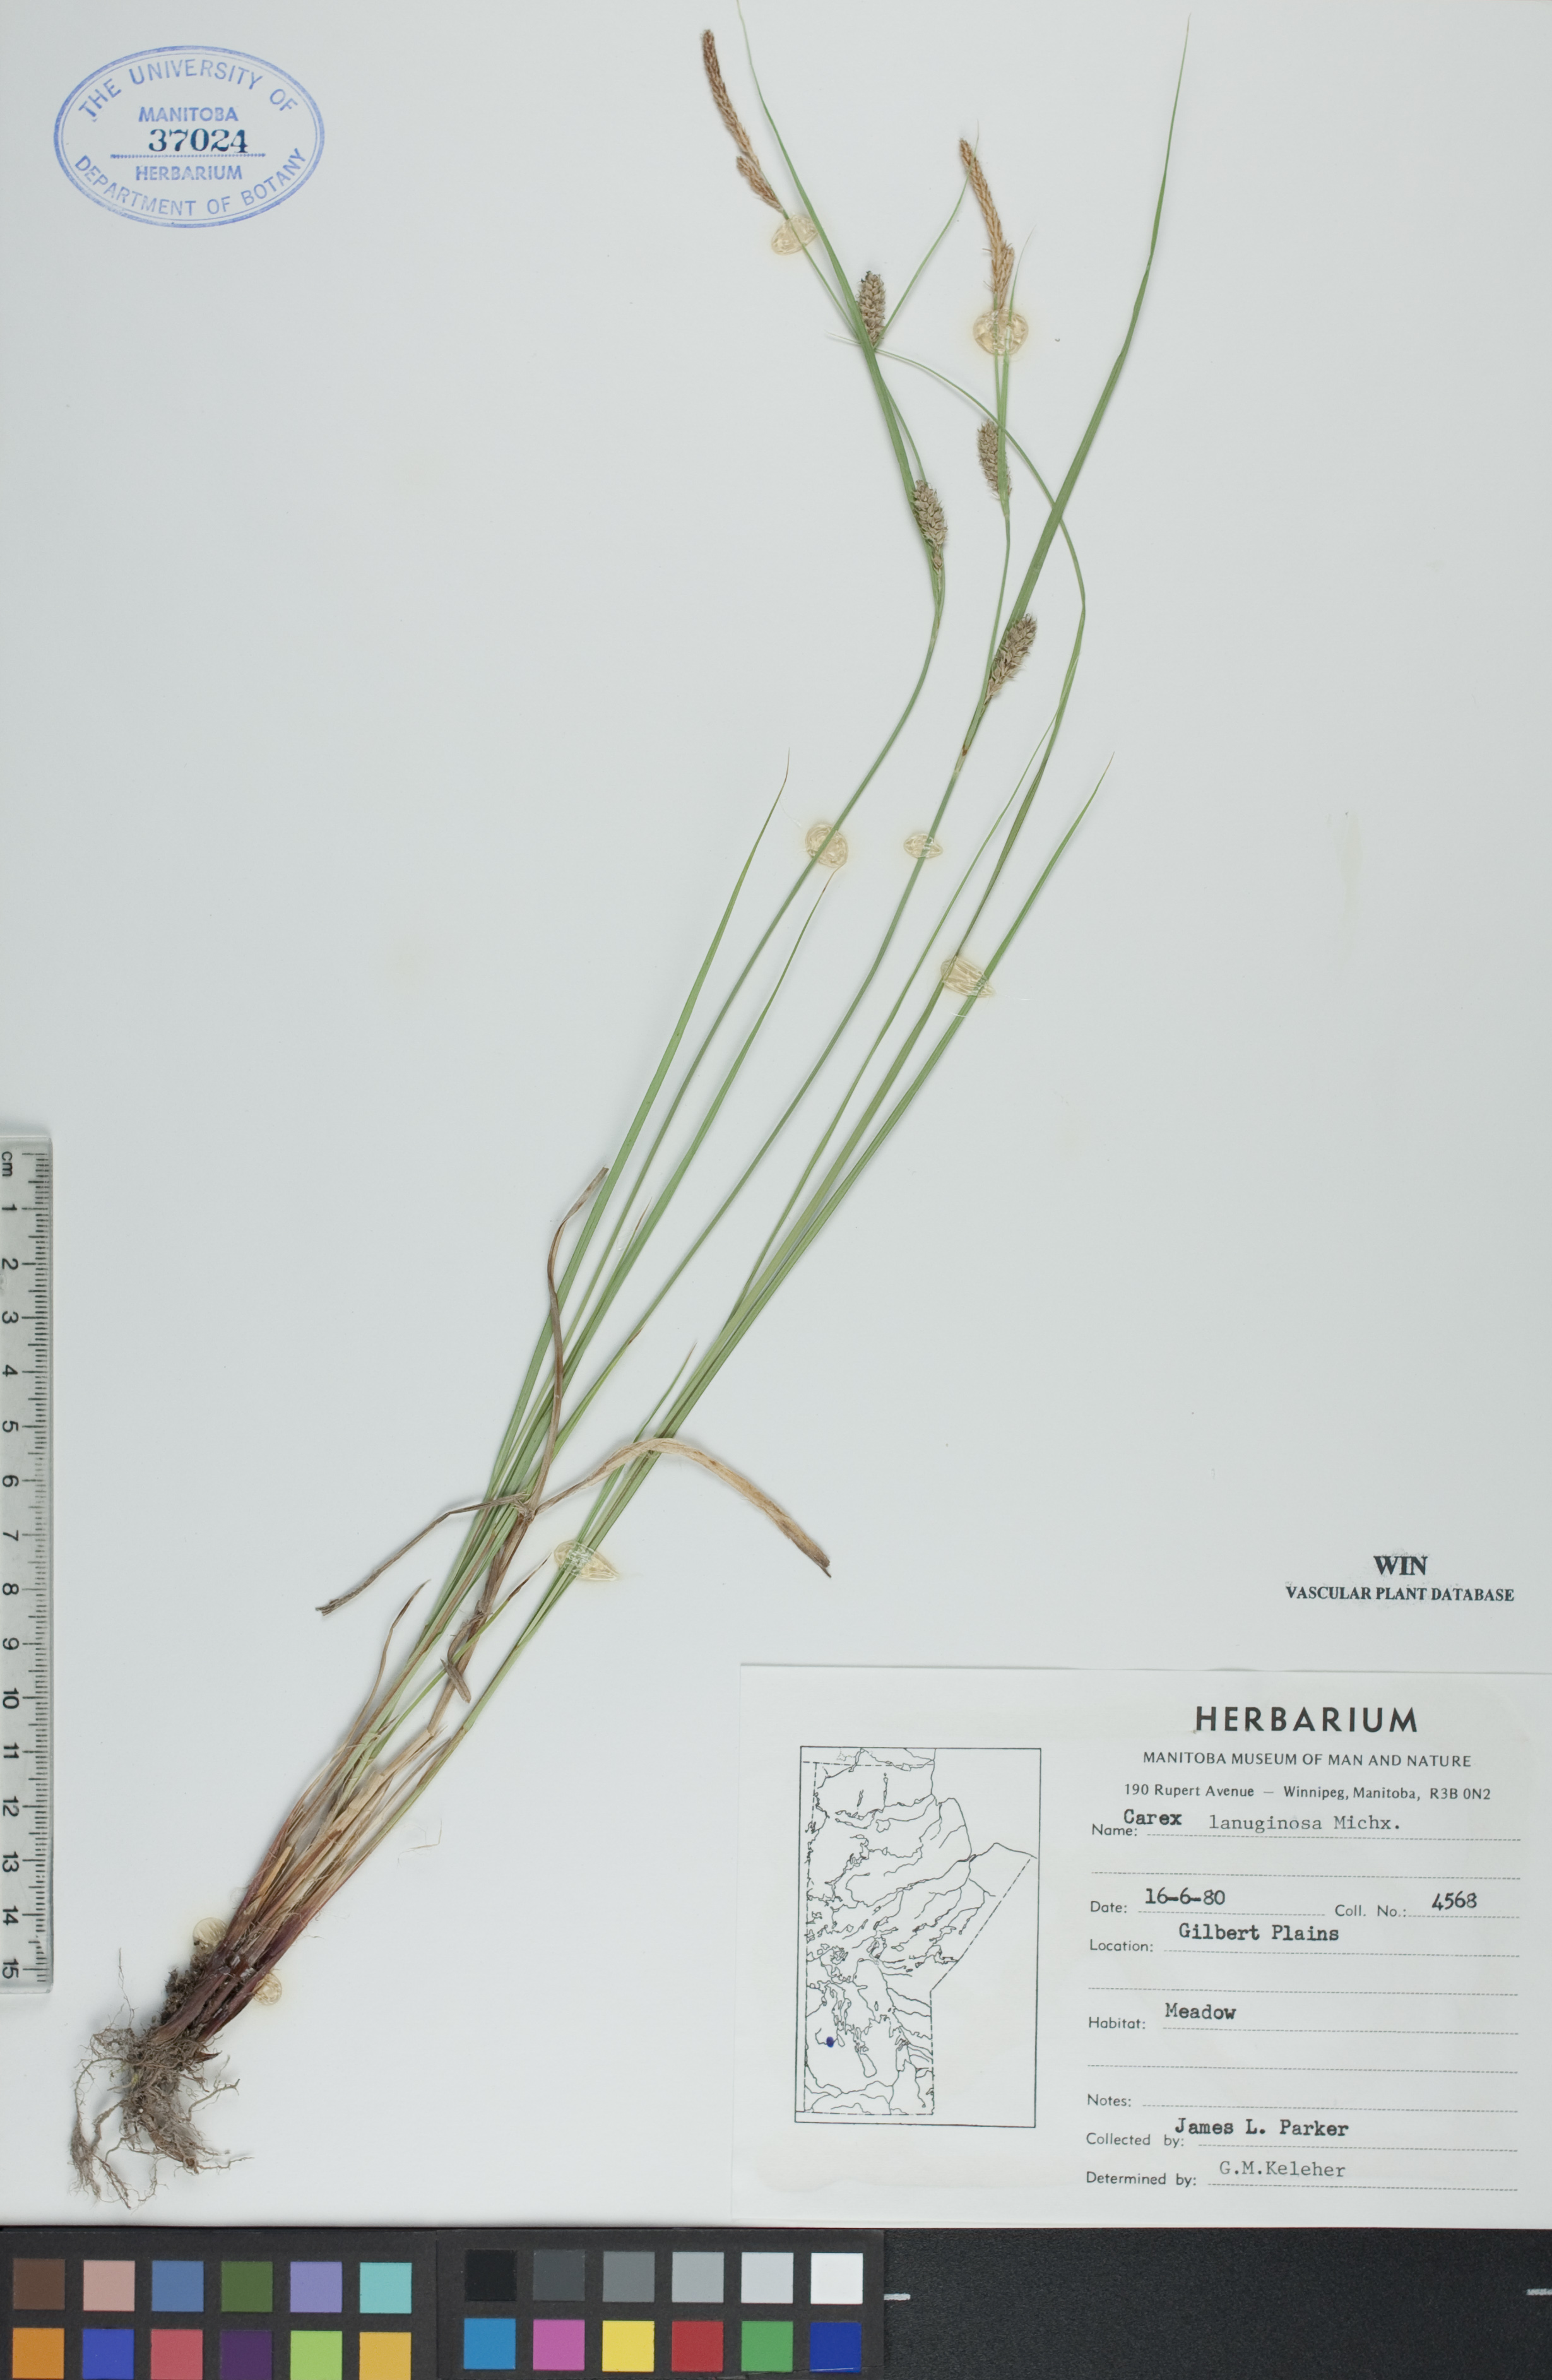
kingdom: Plantae
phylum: Tracheophyta
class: Liliopsida
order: Poales
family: Cyperaceae
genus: Carex
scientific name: Carex lasiocarpa
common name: Slender sedge
